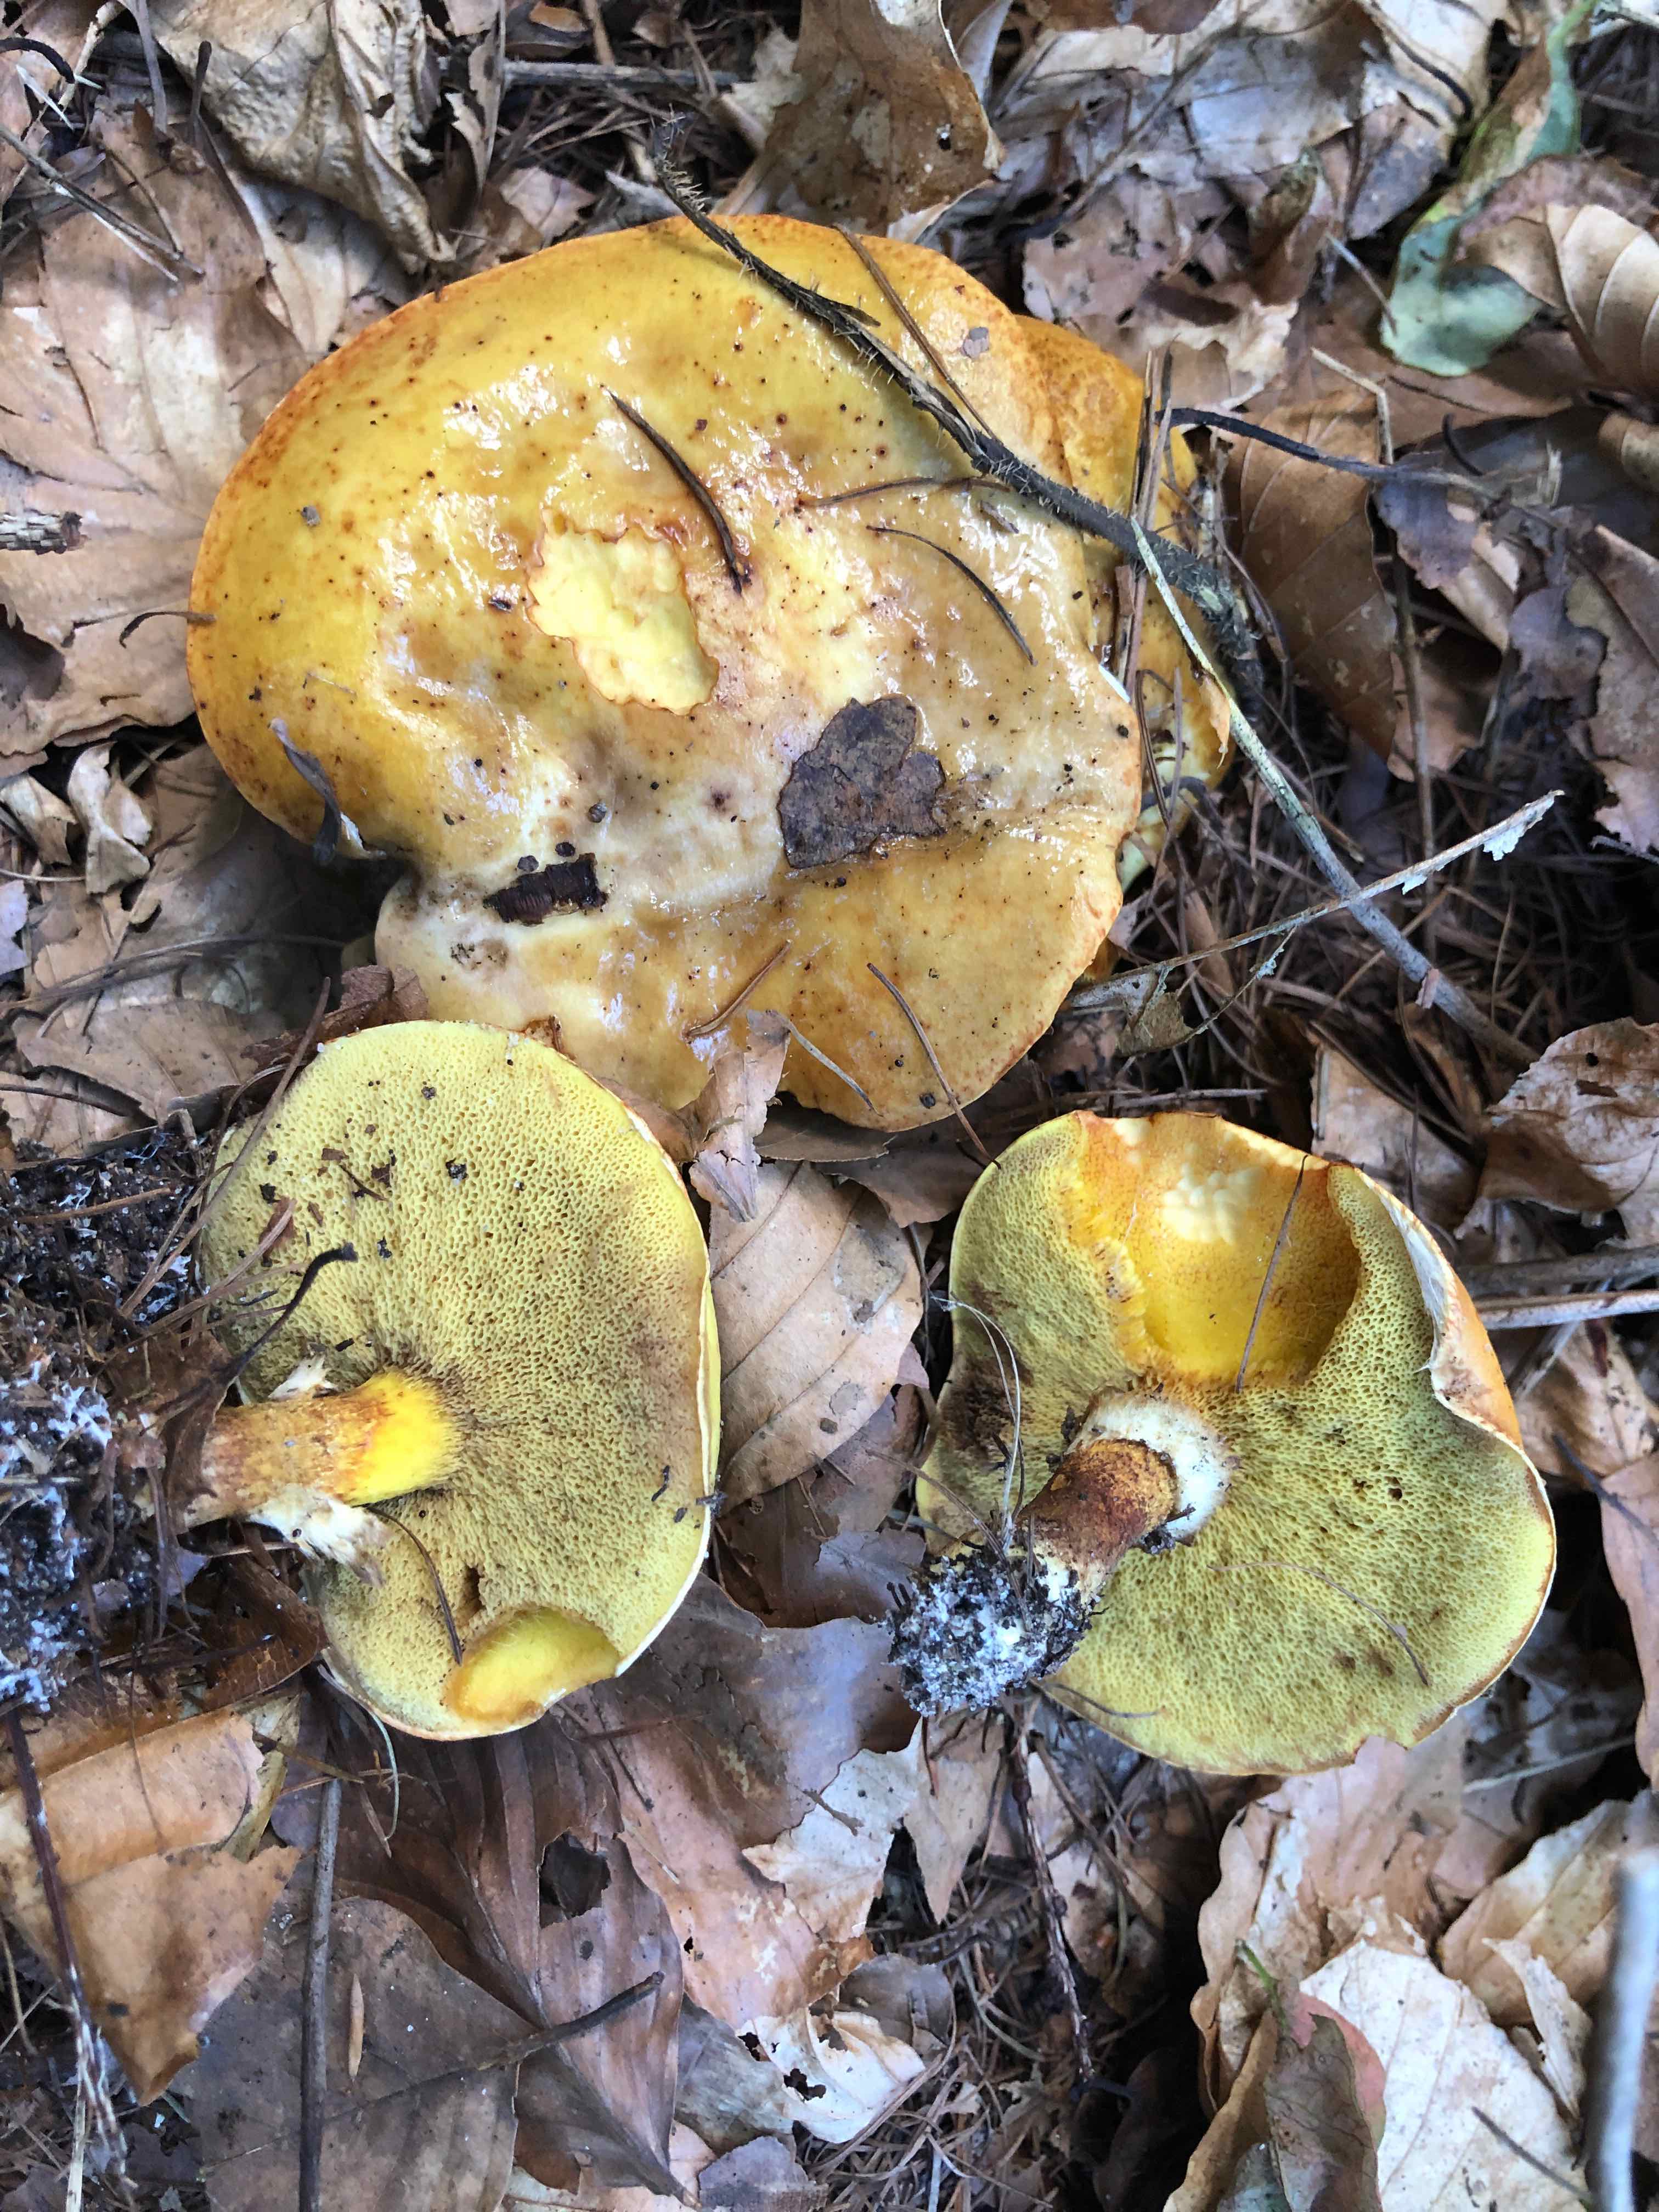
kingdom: Fungi
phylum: Basidiomycota
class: Agaricomycetes
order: Boletales
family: Suillaceae
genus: Suillus
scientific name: Suillus grevillei
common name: lærke-slimrørhat
